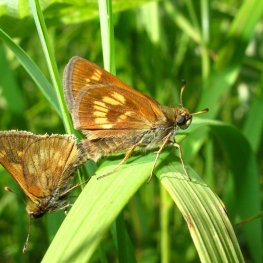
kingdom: Animalia
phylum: Arthropoda
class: Insecta
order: Lepidoptera
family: Hesperiidae
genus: Polites
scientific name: Polites
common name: Long Dash Skipper
